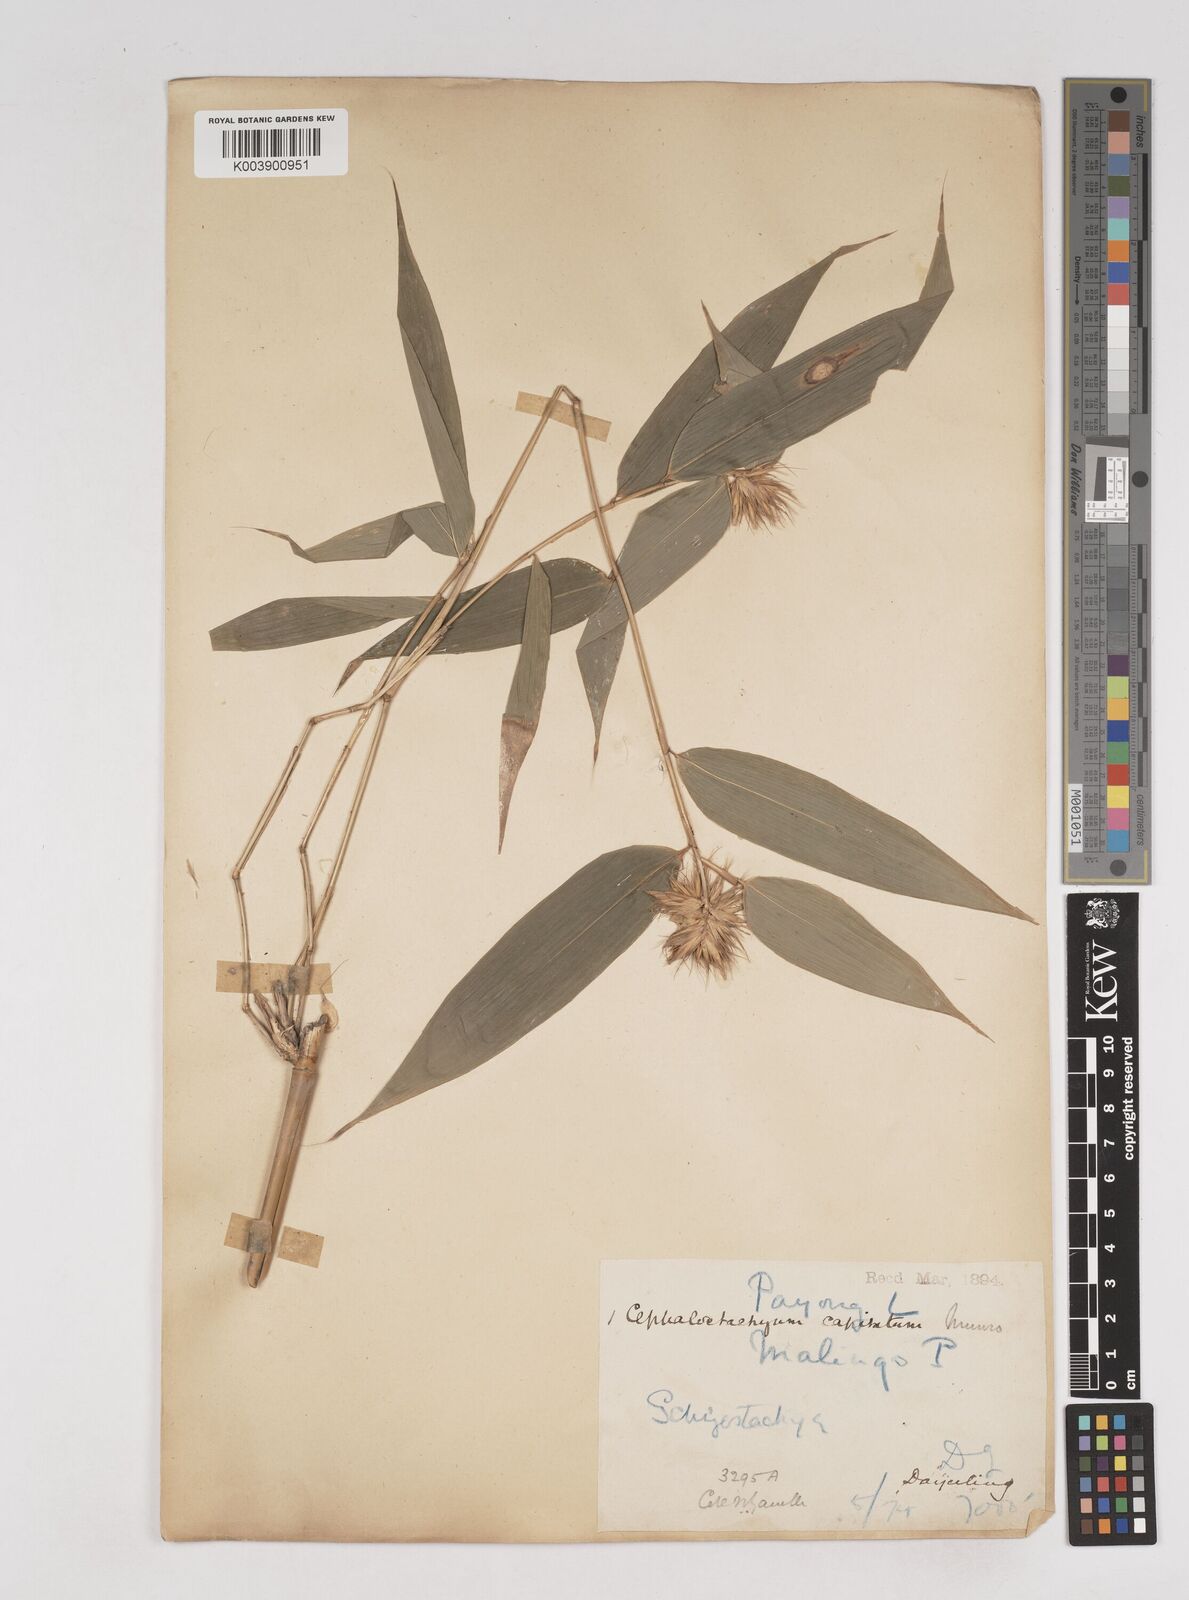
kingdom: Plantae
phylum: Tracheophyta
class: Liliopsida
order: Poales
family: Poaceae
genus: Cephalostachyum
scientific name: Cephalostachyum capitatum
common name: Hollow bamboo
